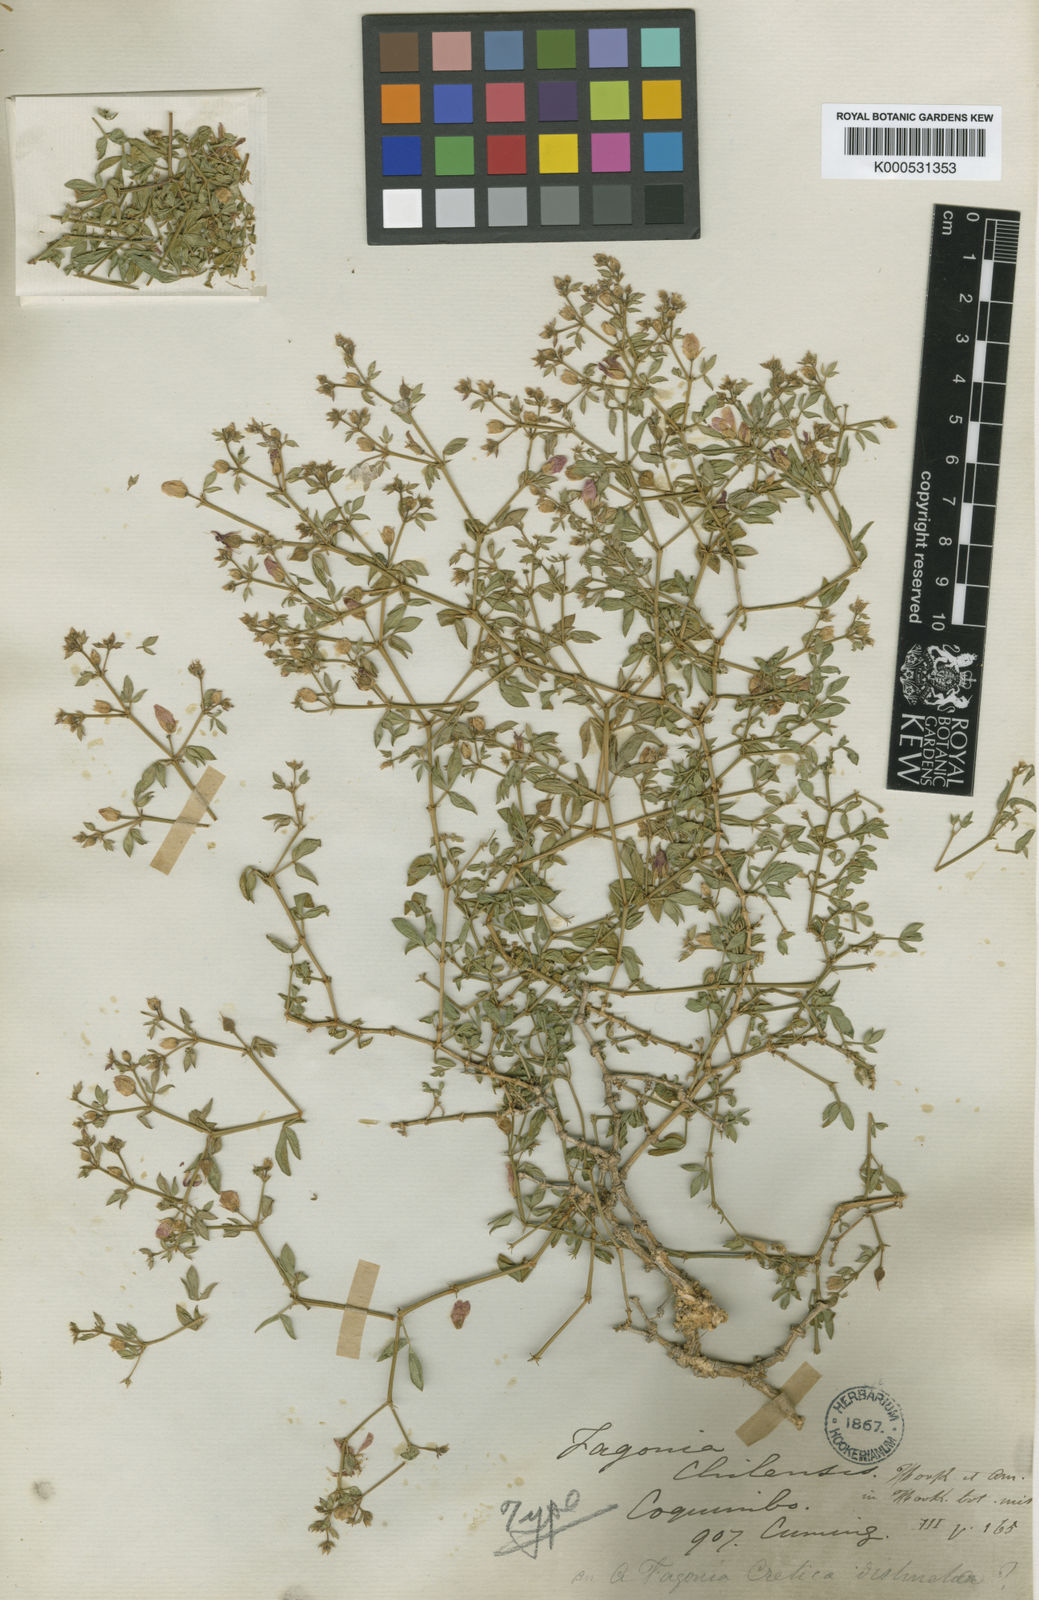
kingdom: Plantae
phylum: Tracheophyta
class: Magnoliopsida
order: Zygophyllales
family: Zygophyllaceae
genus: Fagonia
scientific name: Fagonia chilensis
